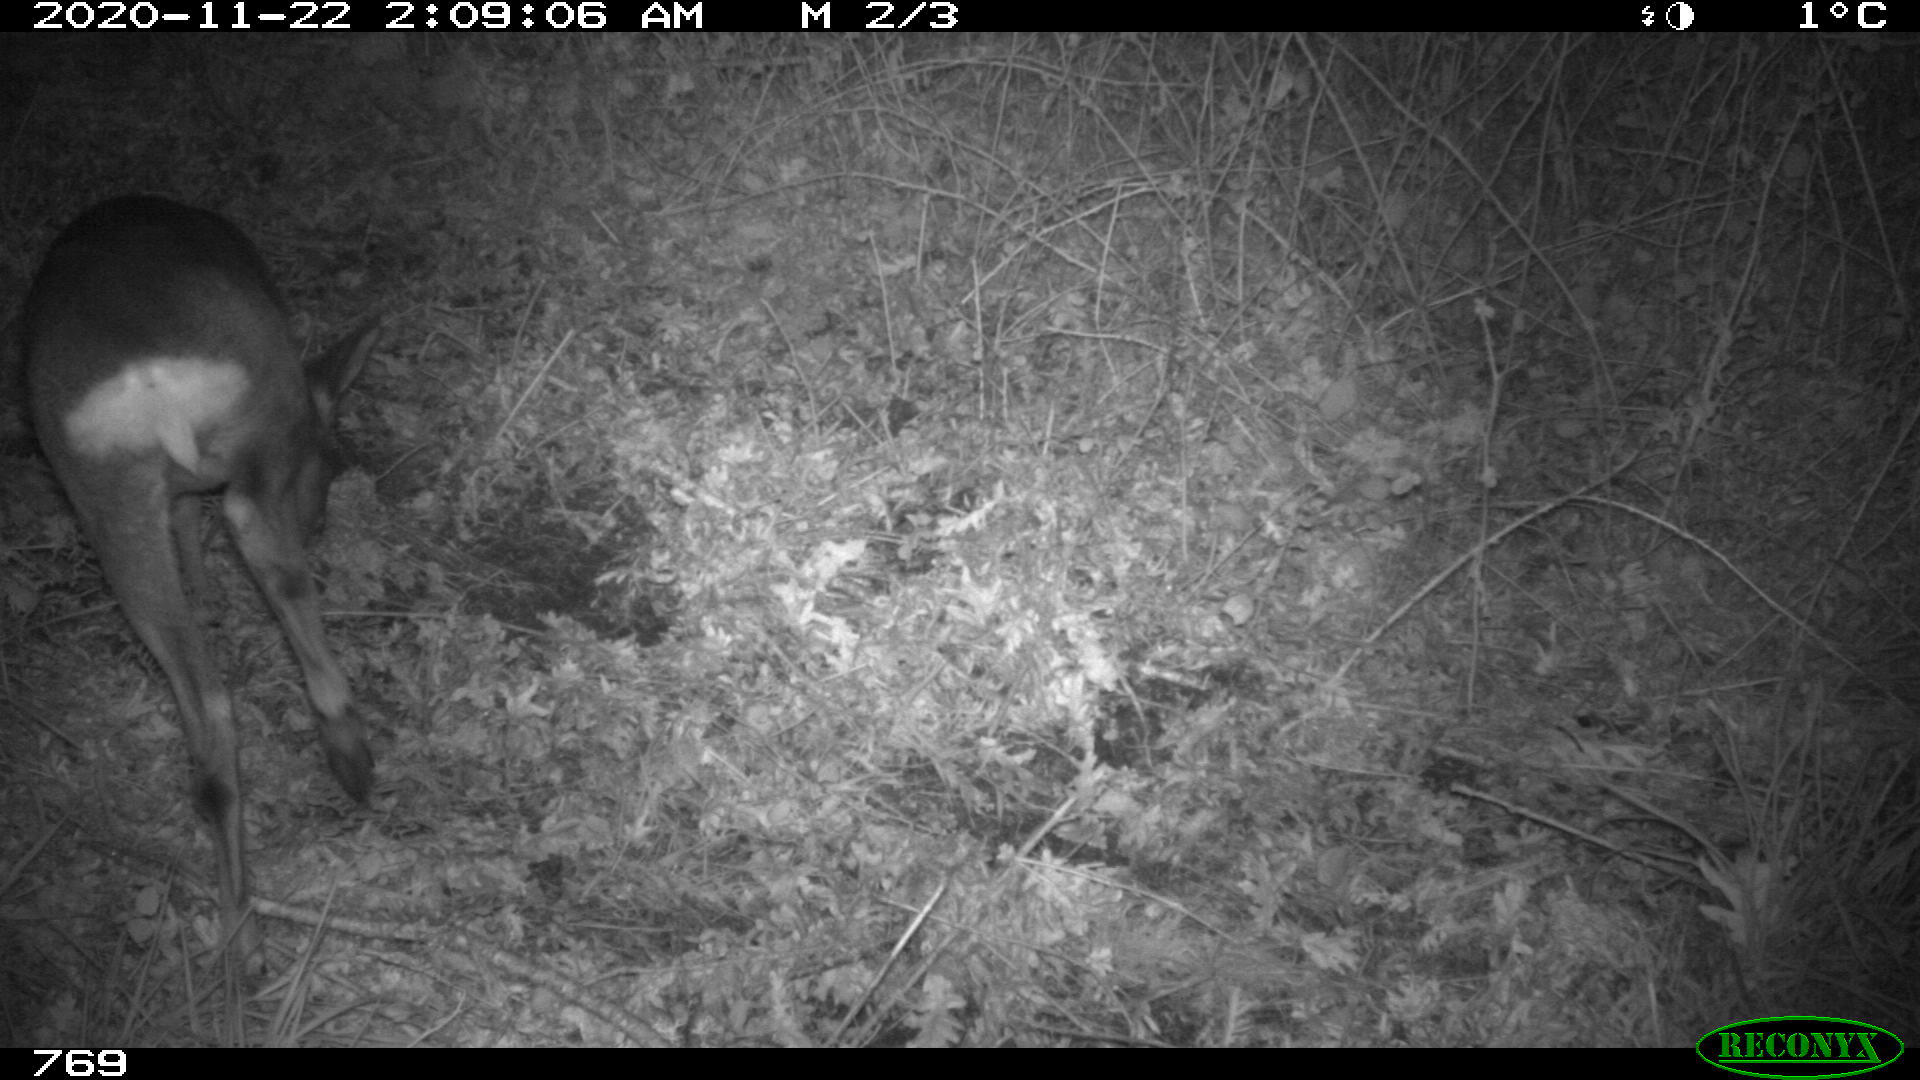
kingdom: Animalia
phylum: Chordata
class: Mammalia
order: Artiodactyla
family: Cervidae
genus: Capreolus
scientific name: Capreolus capreolus
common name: Western roe deer
